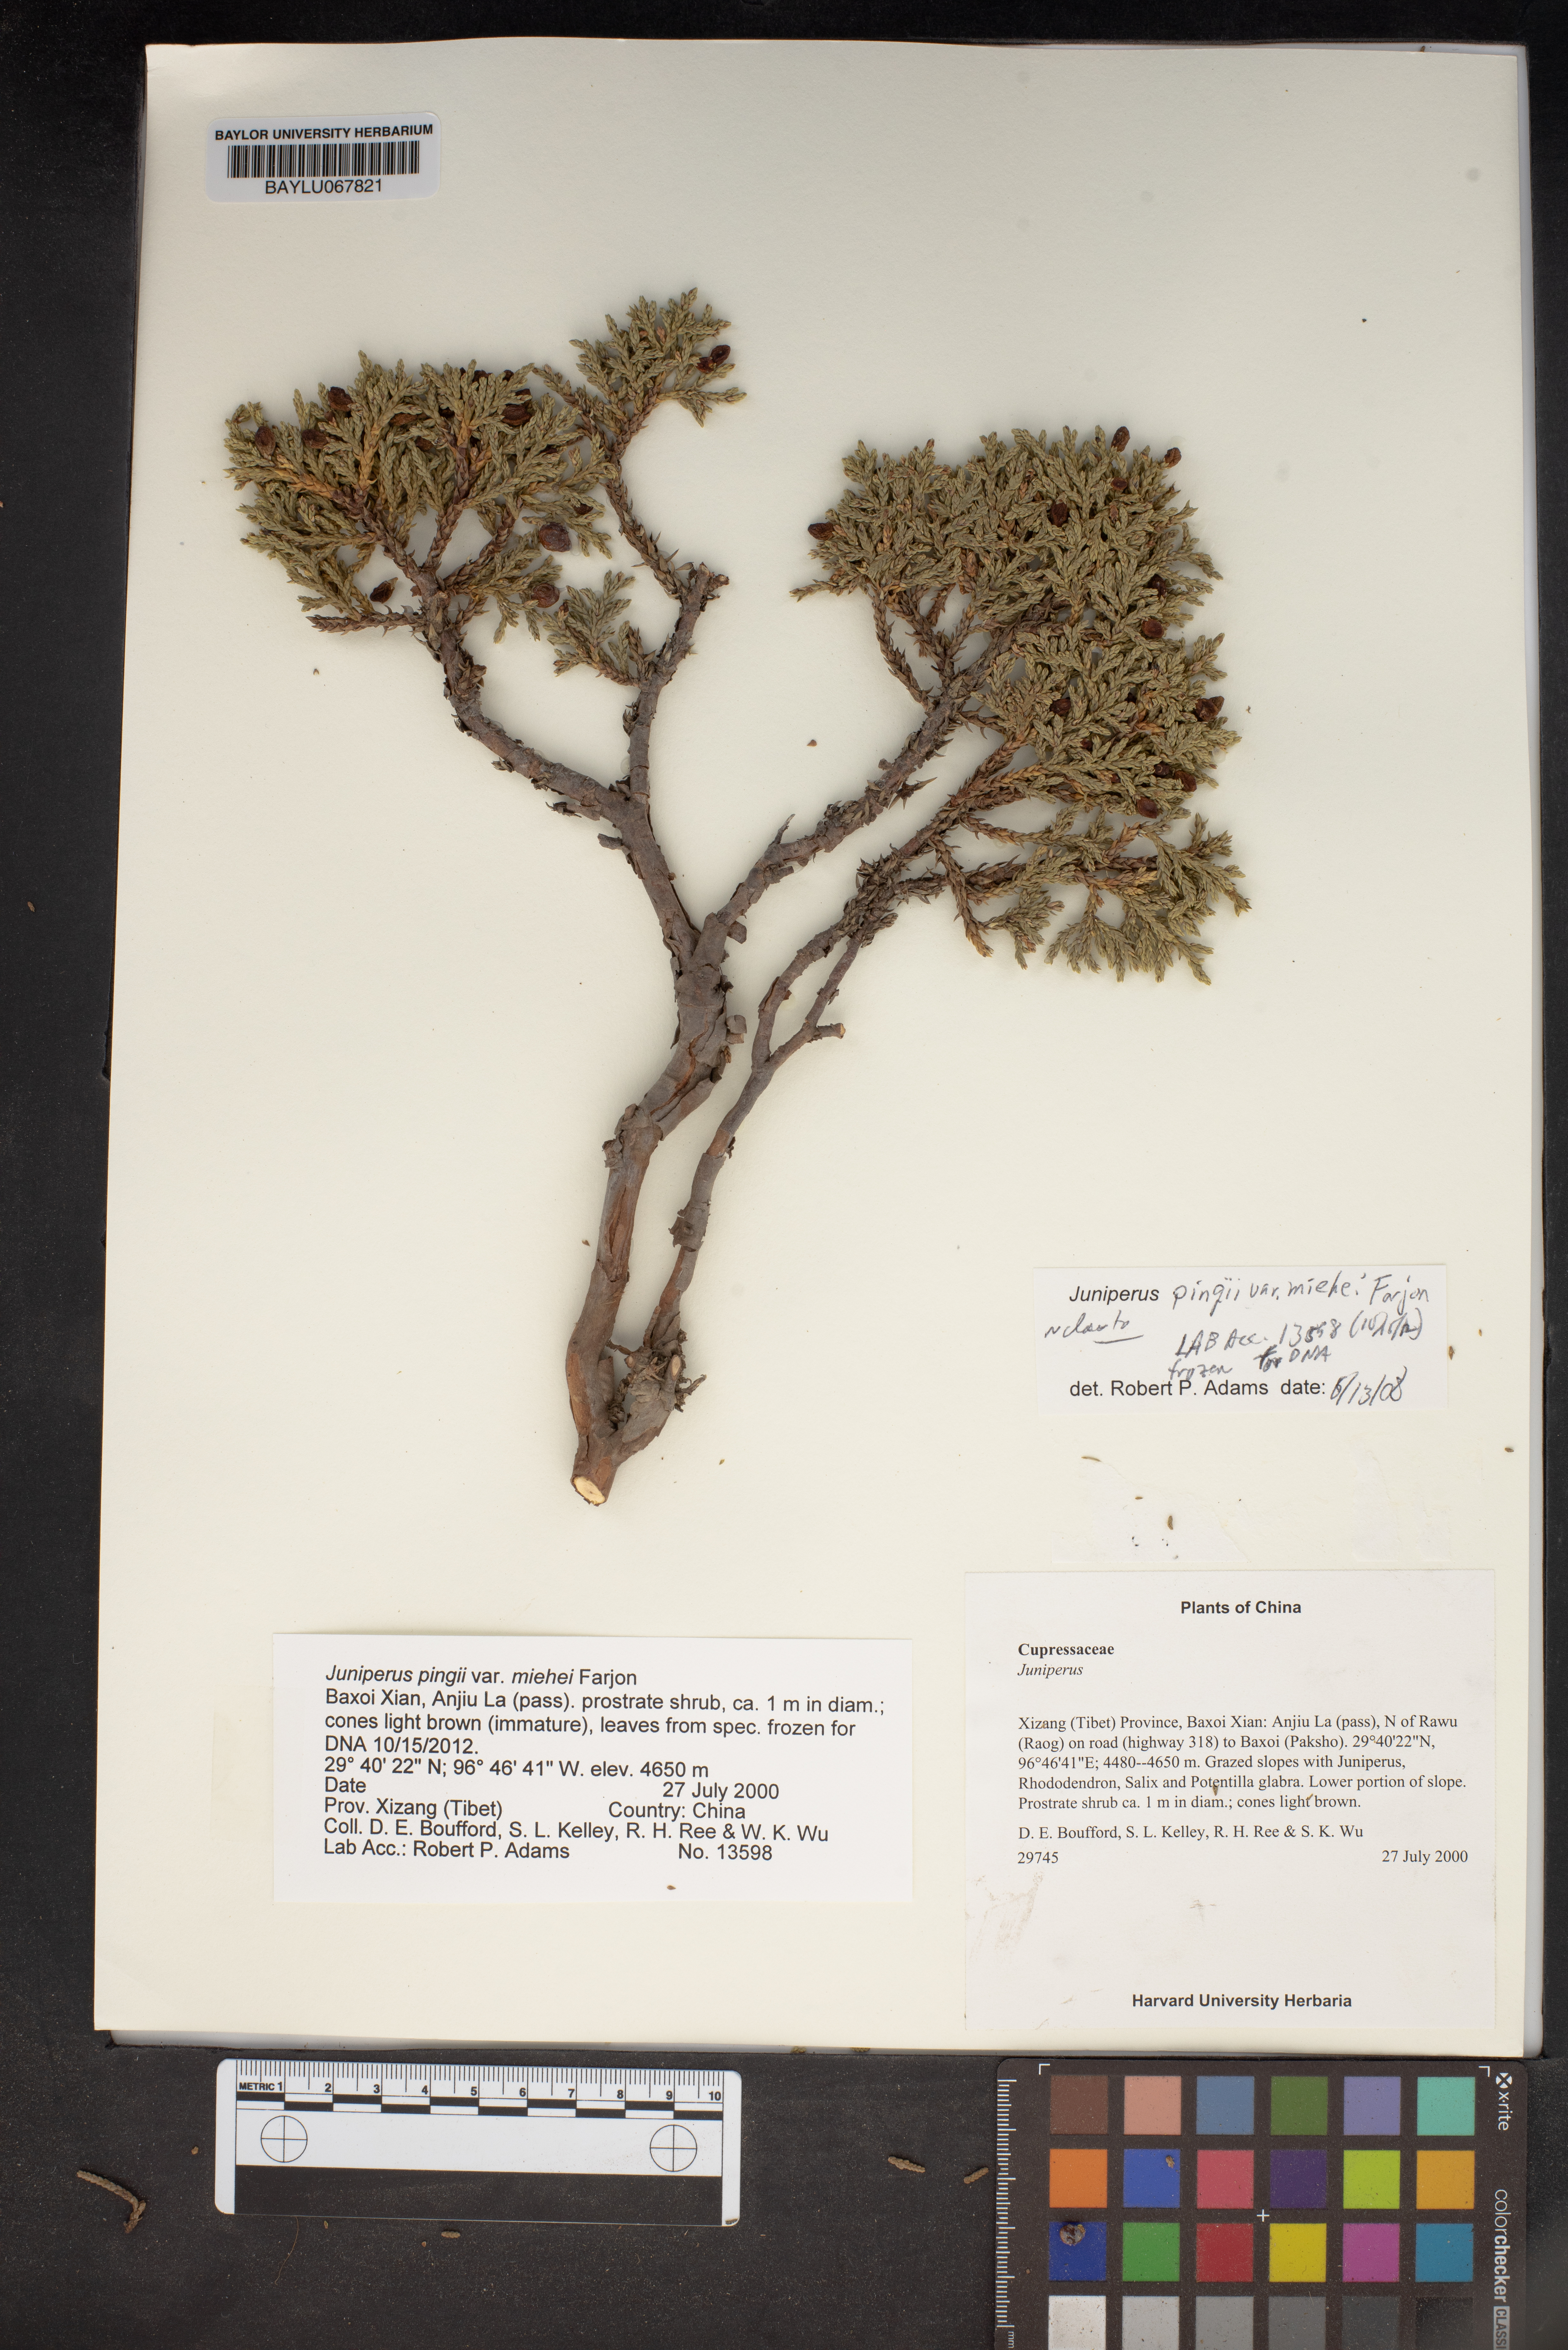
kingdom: Plantae
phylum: Tracheophyta
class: Pinopsida
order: Pinales
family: Cupressaceae
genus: Juniperus
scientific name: Juniperus pingii
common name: Ping's juniper
